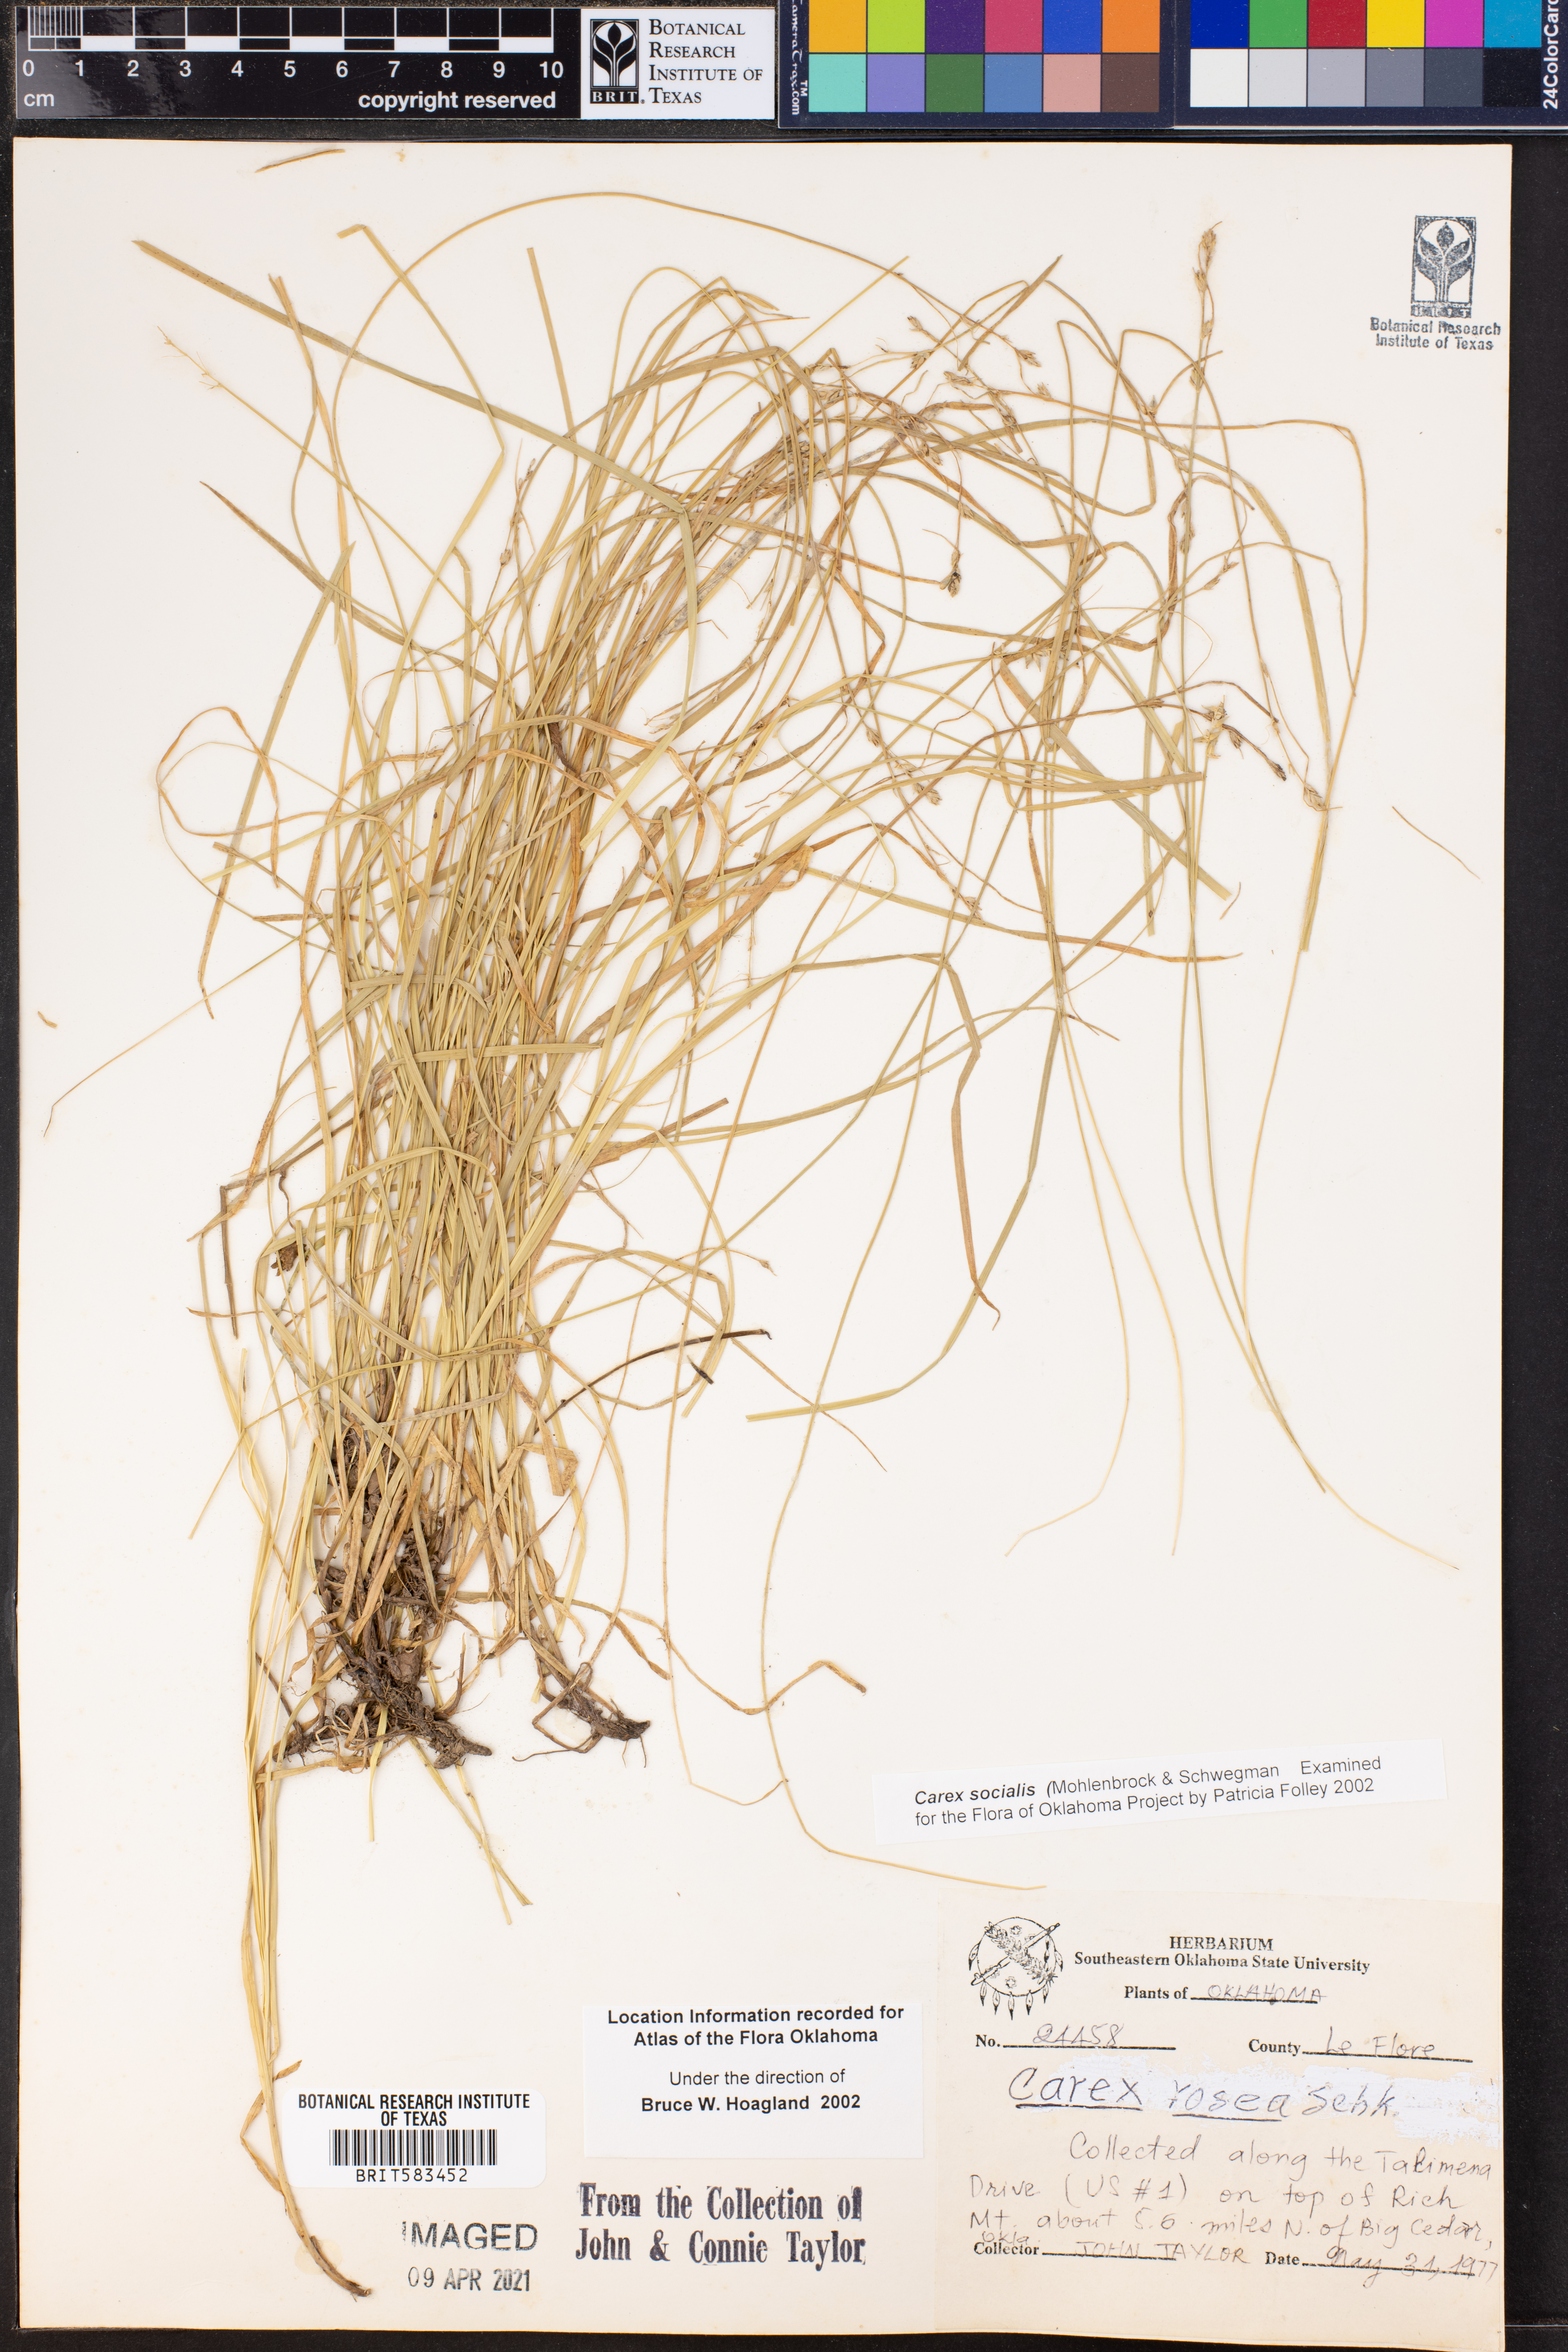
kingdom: Plantae
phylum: Tracheophyta
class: Liliopsida
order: Poales
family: Cyperaceae
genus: Carex
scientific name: Carex socialis
